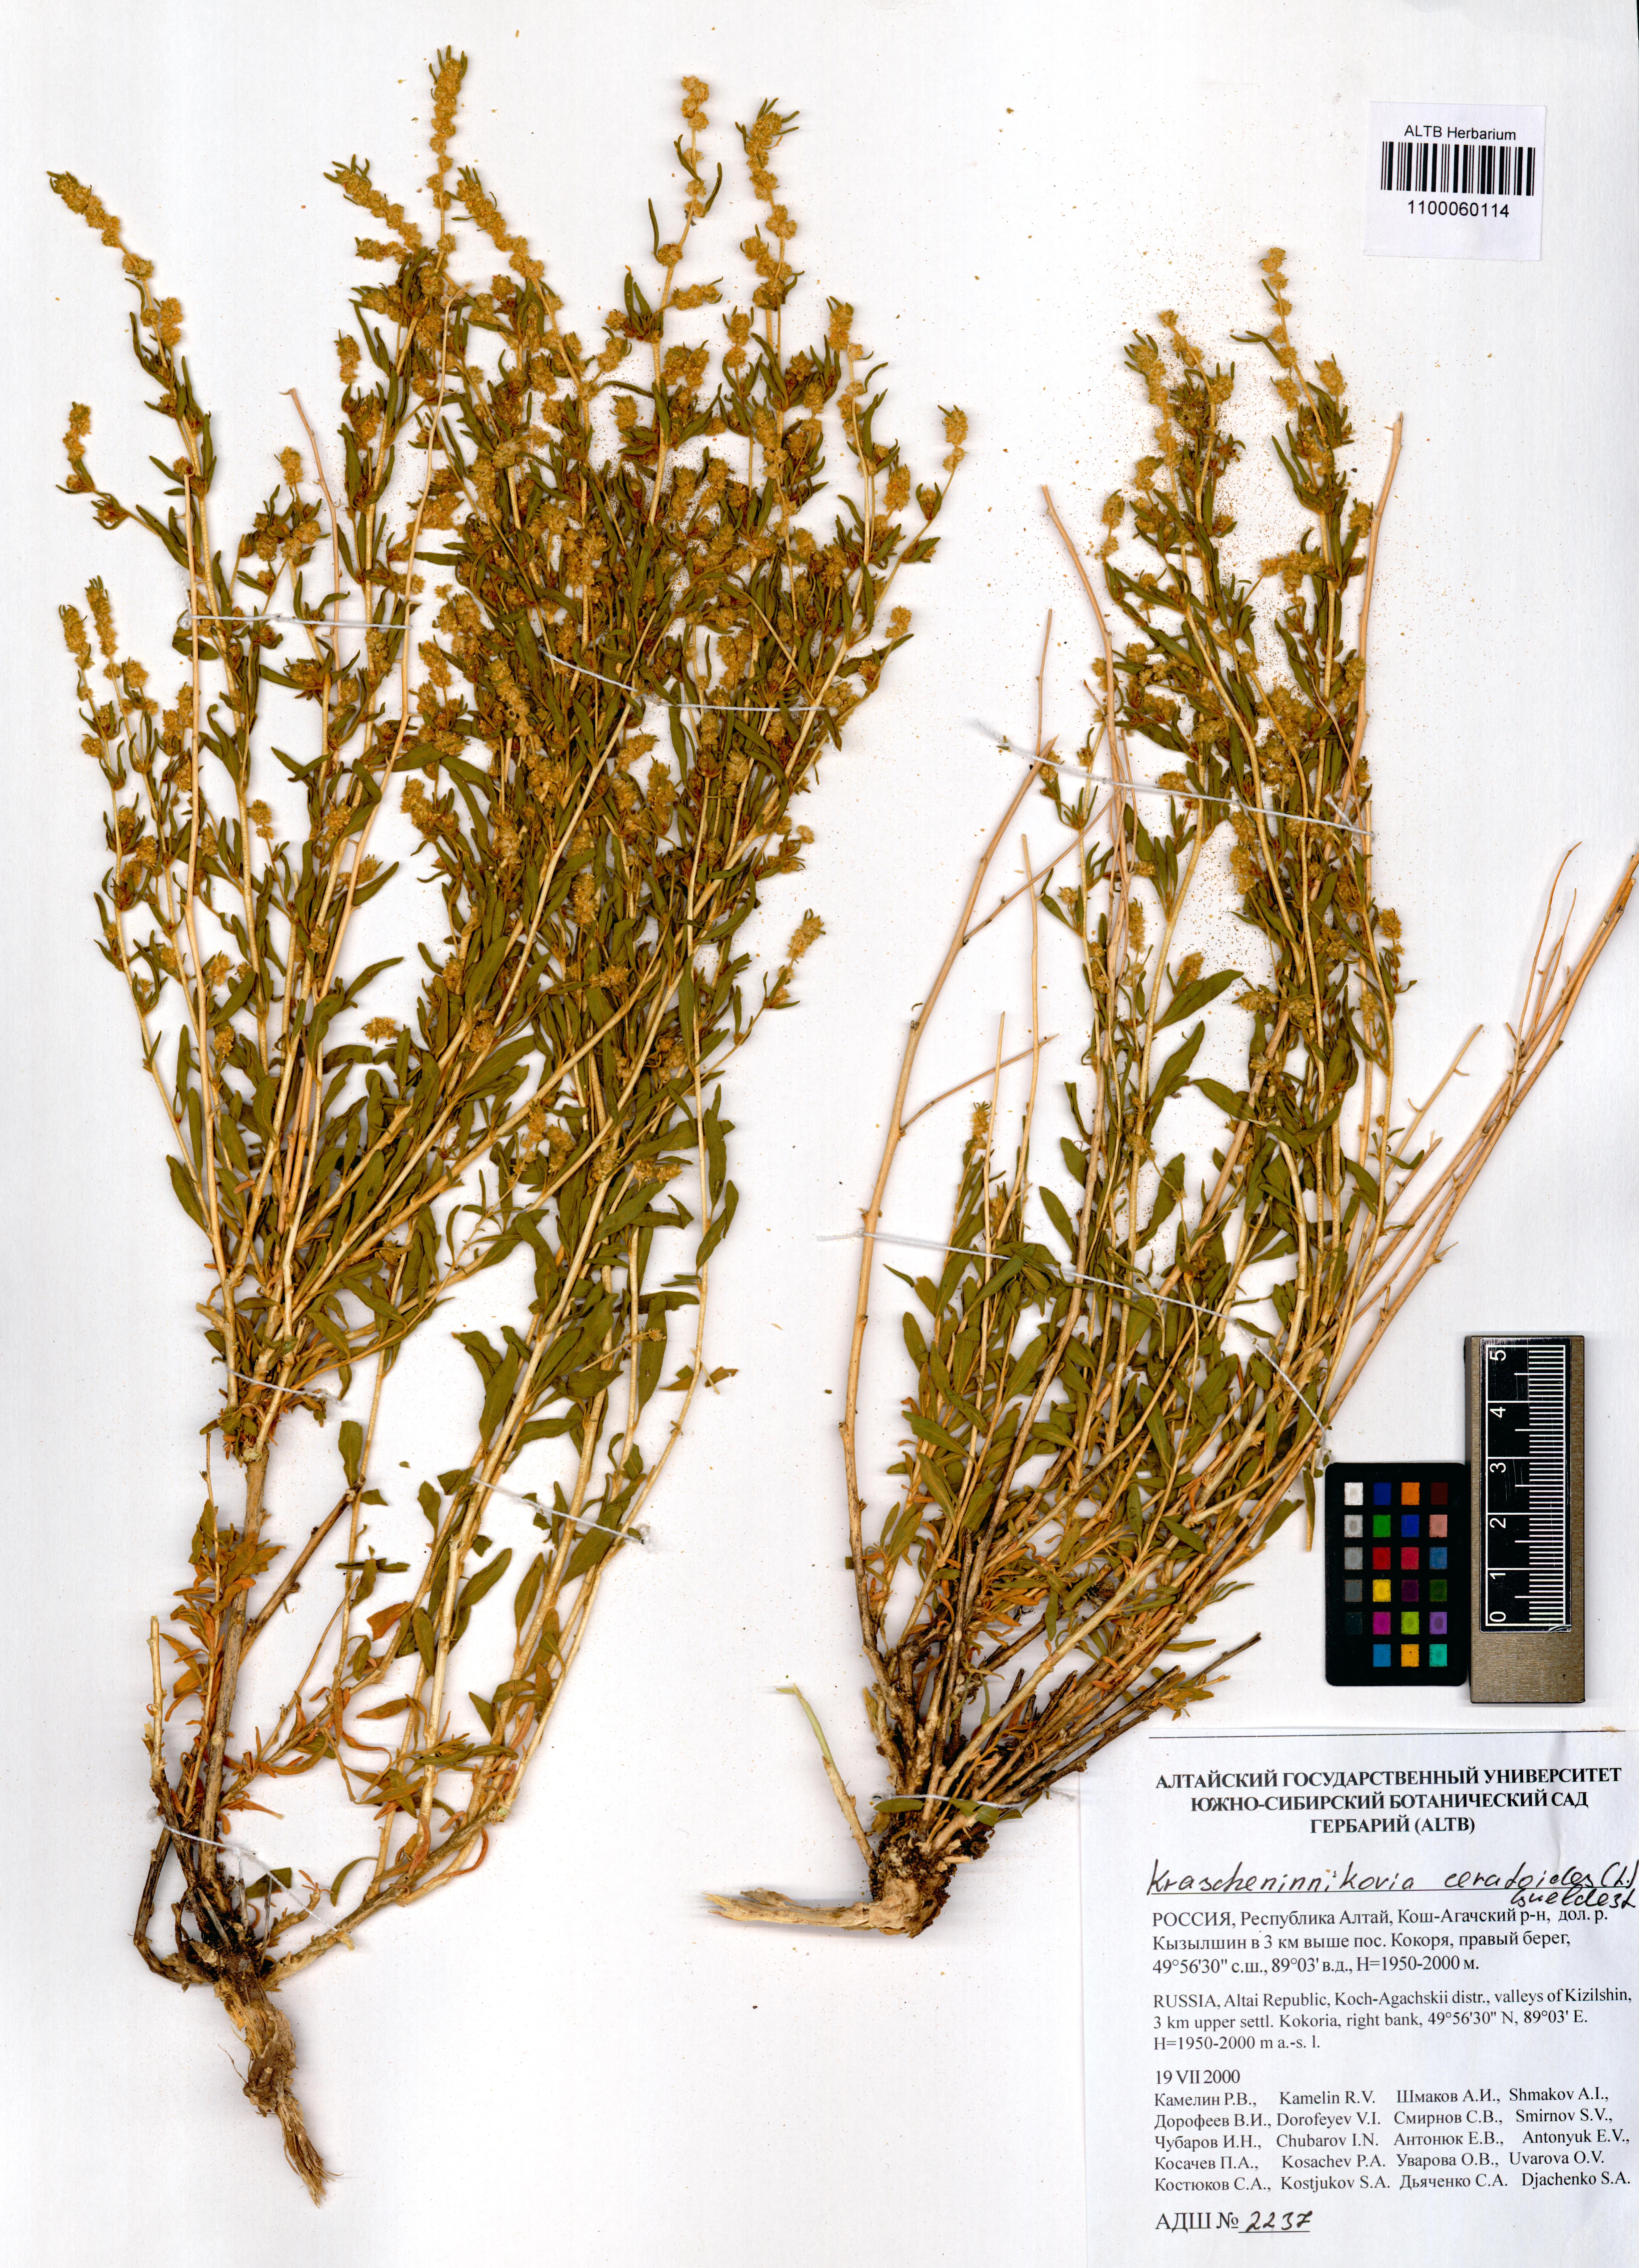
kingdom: Plantae
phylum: Tracheophyta
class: Magnoliopsida
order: Caryophyllales
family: Amaranthaceae
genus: Krascheninnikovia
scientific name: Krascheninnikovia ceratoides
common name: Pamirian winterfat
